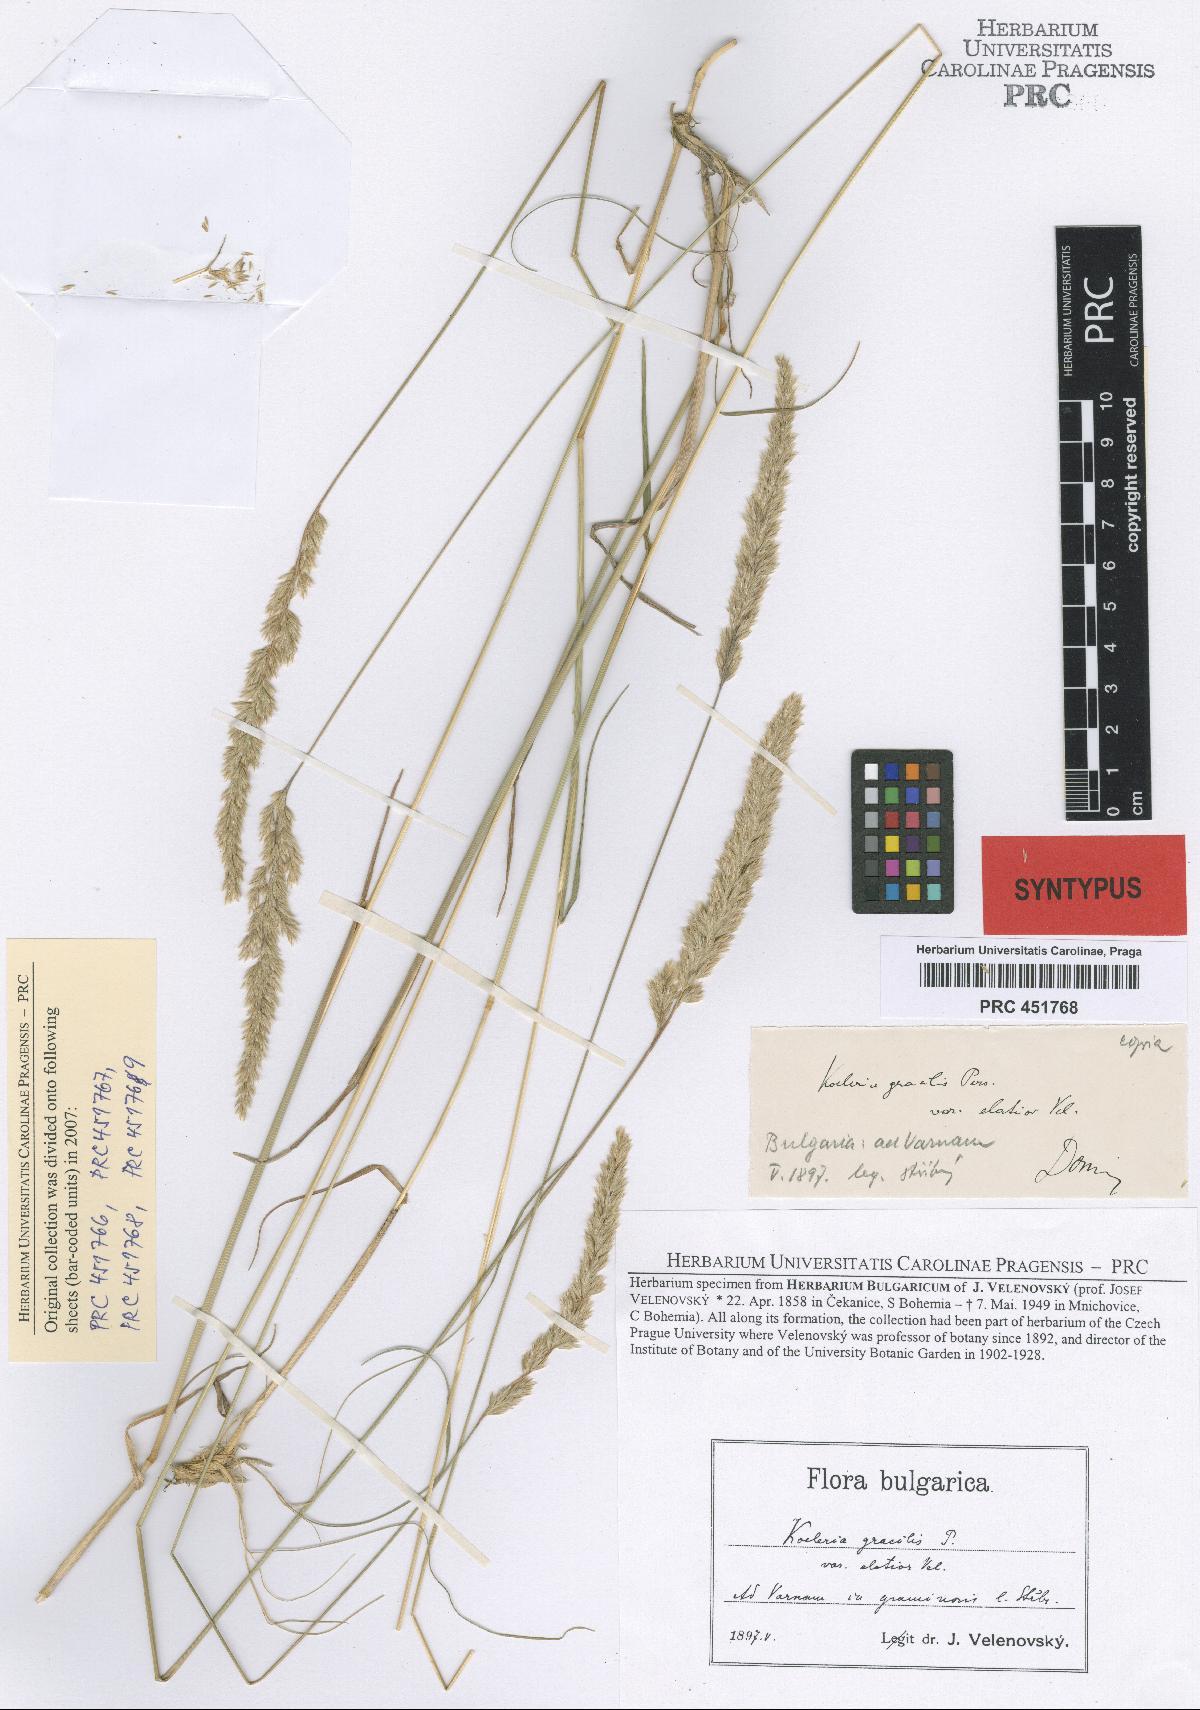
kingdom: Plantae
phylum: Tracheophyta
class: Liliopsida
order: Poales
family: Poaceae
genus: Koeleria
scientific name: Koeleria macrantha
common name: Crested hair-grass
